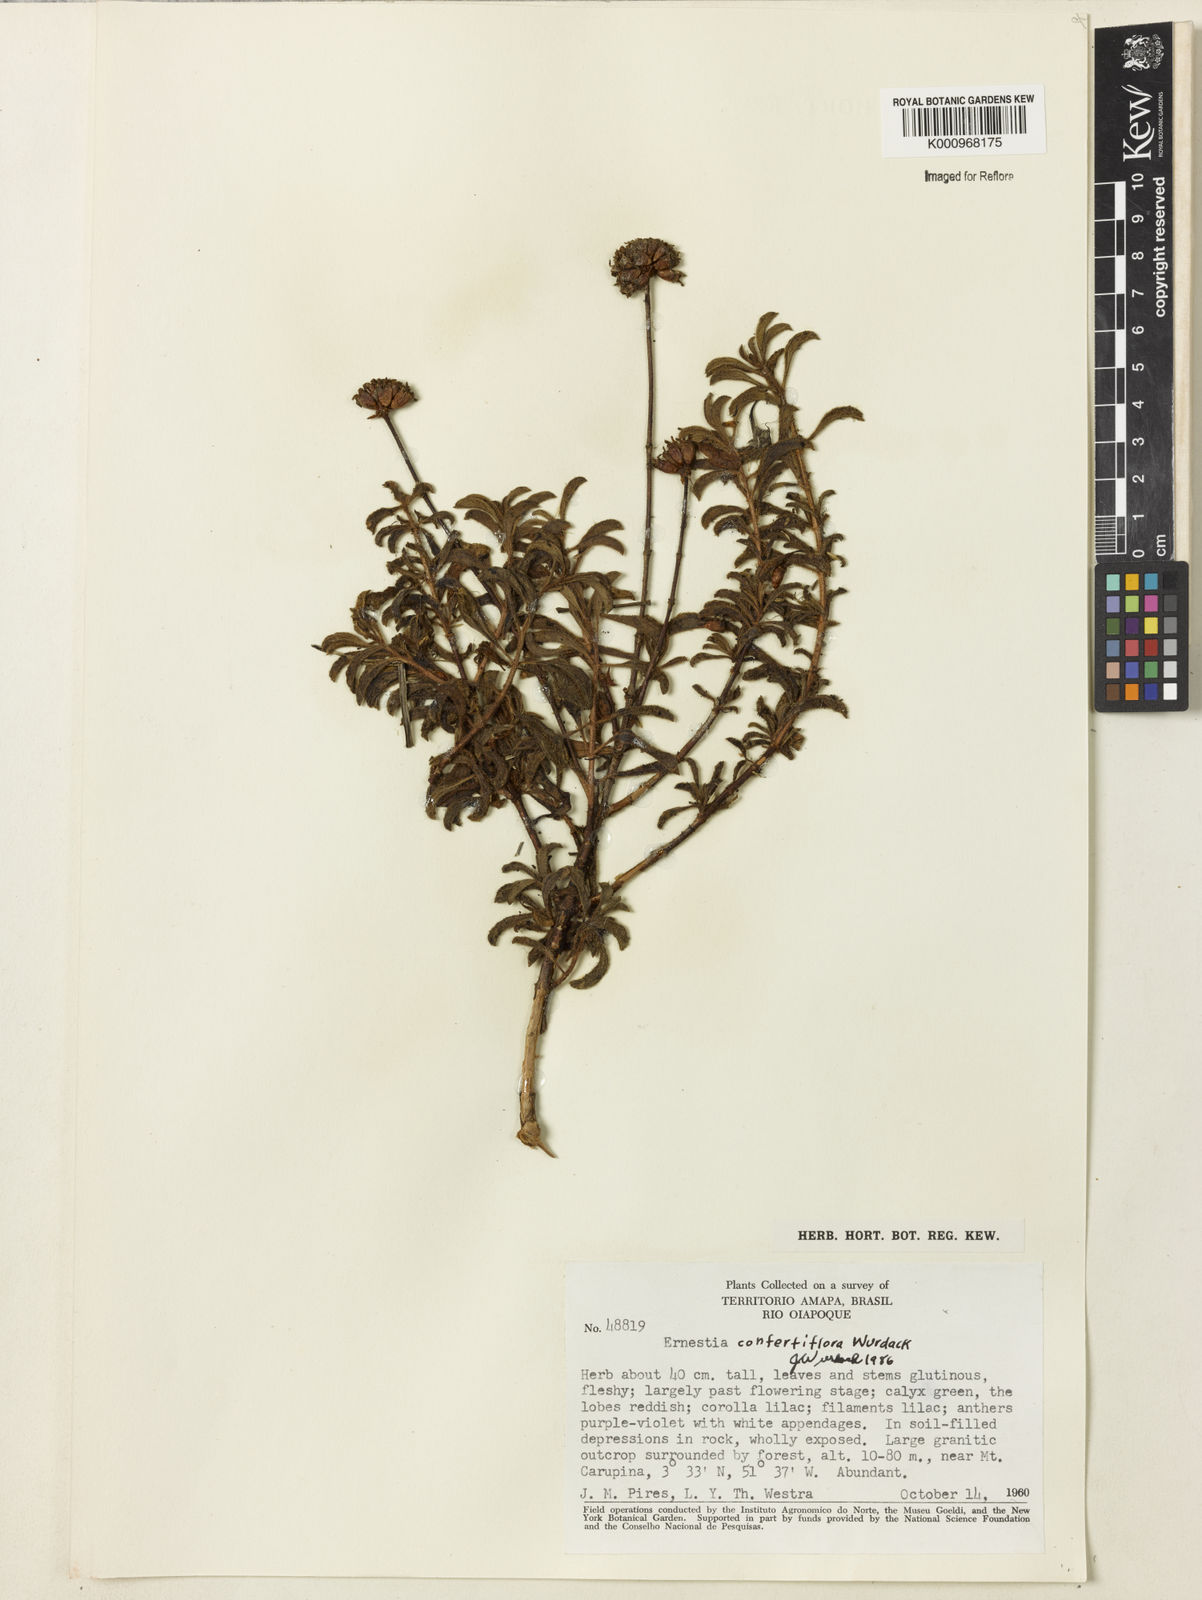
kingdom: Plantae
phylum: Tracheophyta
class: Magnoliopsida
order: Myrtales
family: Melastomataceae
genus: Ernestia
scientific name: Ernestia confertiflora
